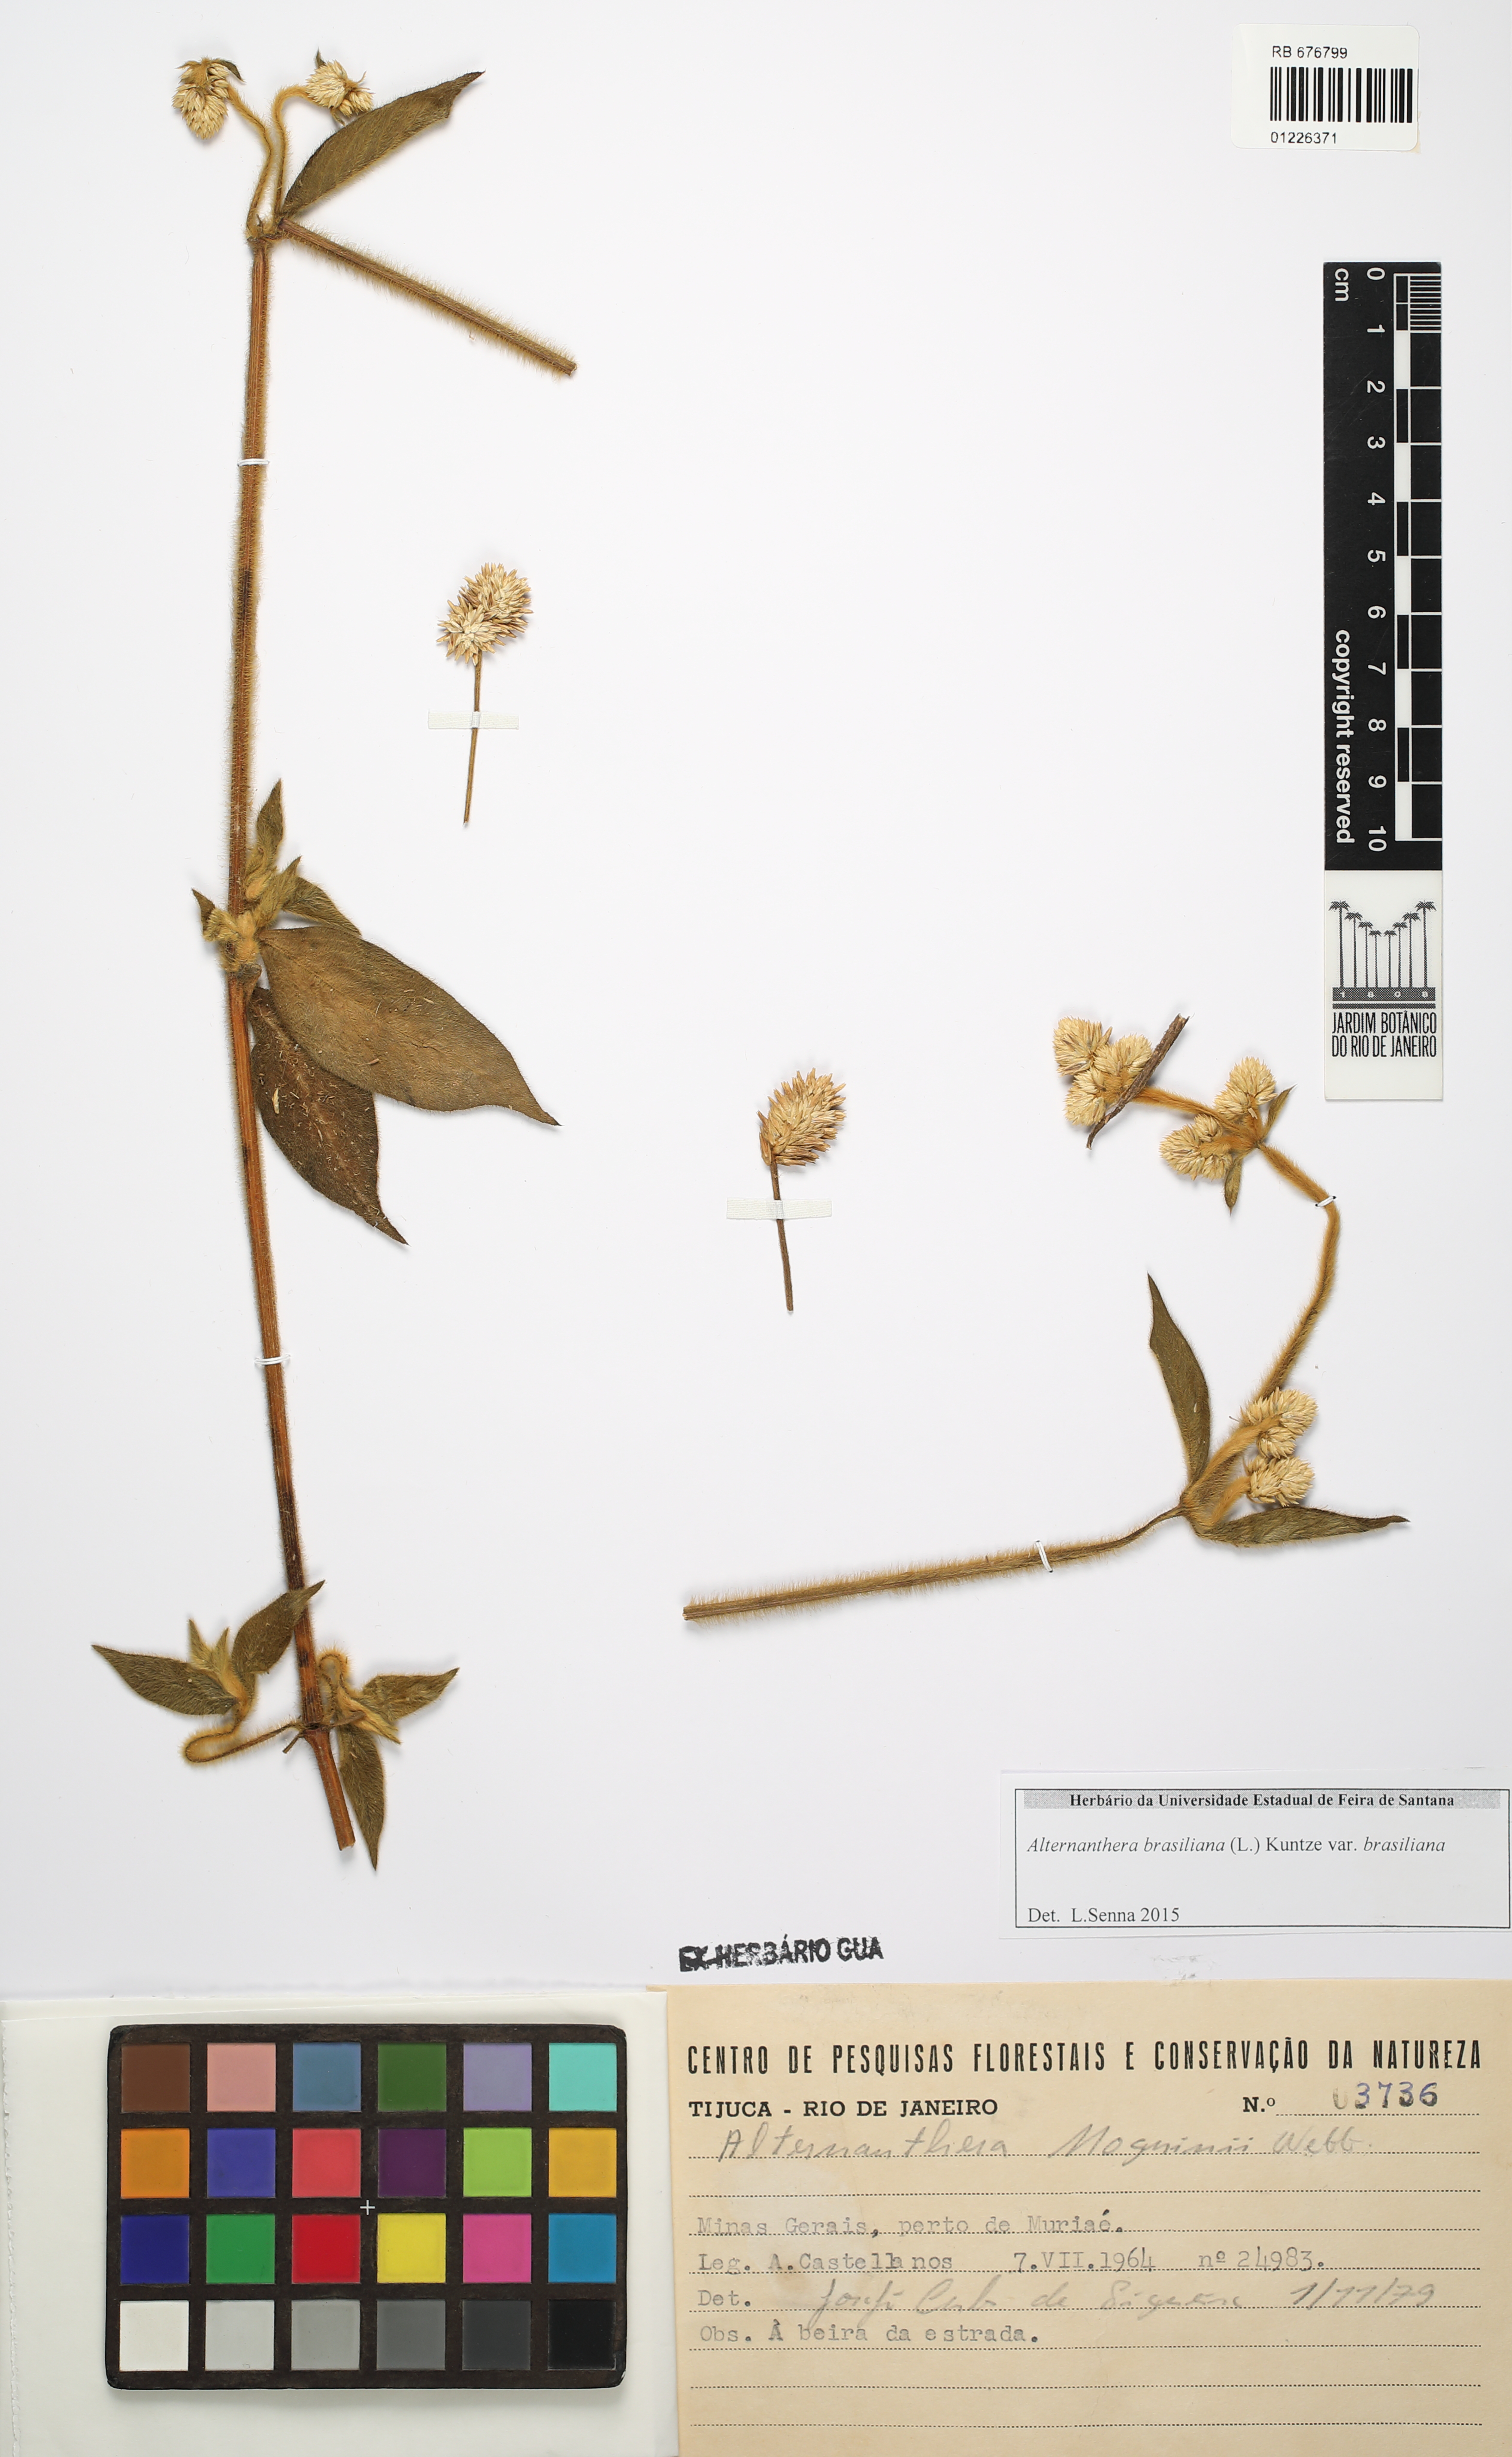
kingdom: Plantae
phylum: Tracheophyta
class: Magnoliopsida
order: Caryophyllales
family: Amaranthaceae
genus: Alternanthera
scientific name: Alternanthera brasiliana
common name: Brazilian joyweed
